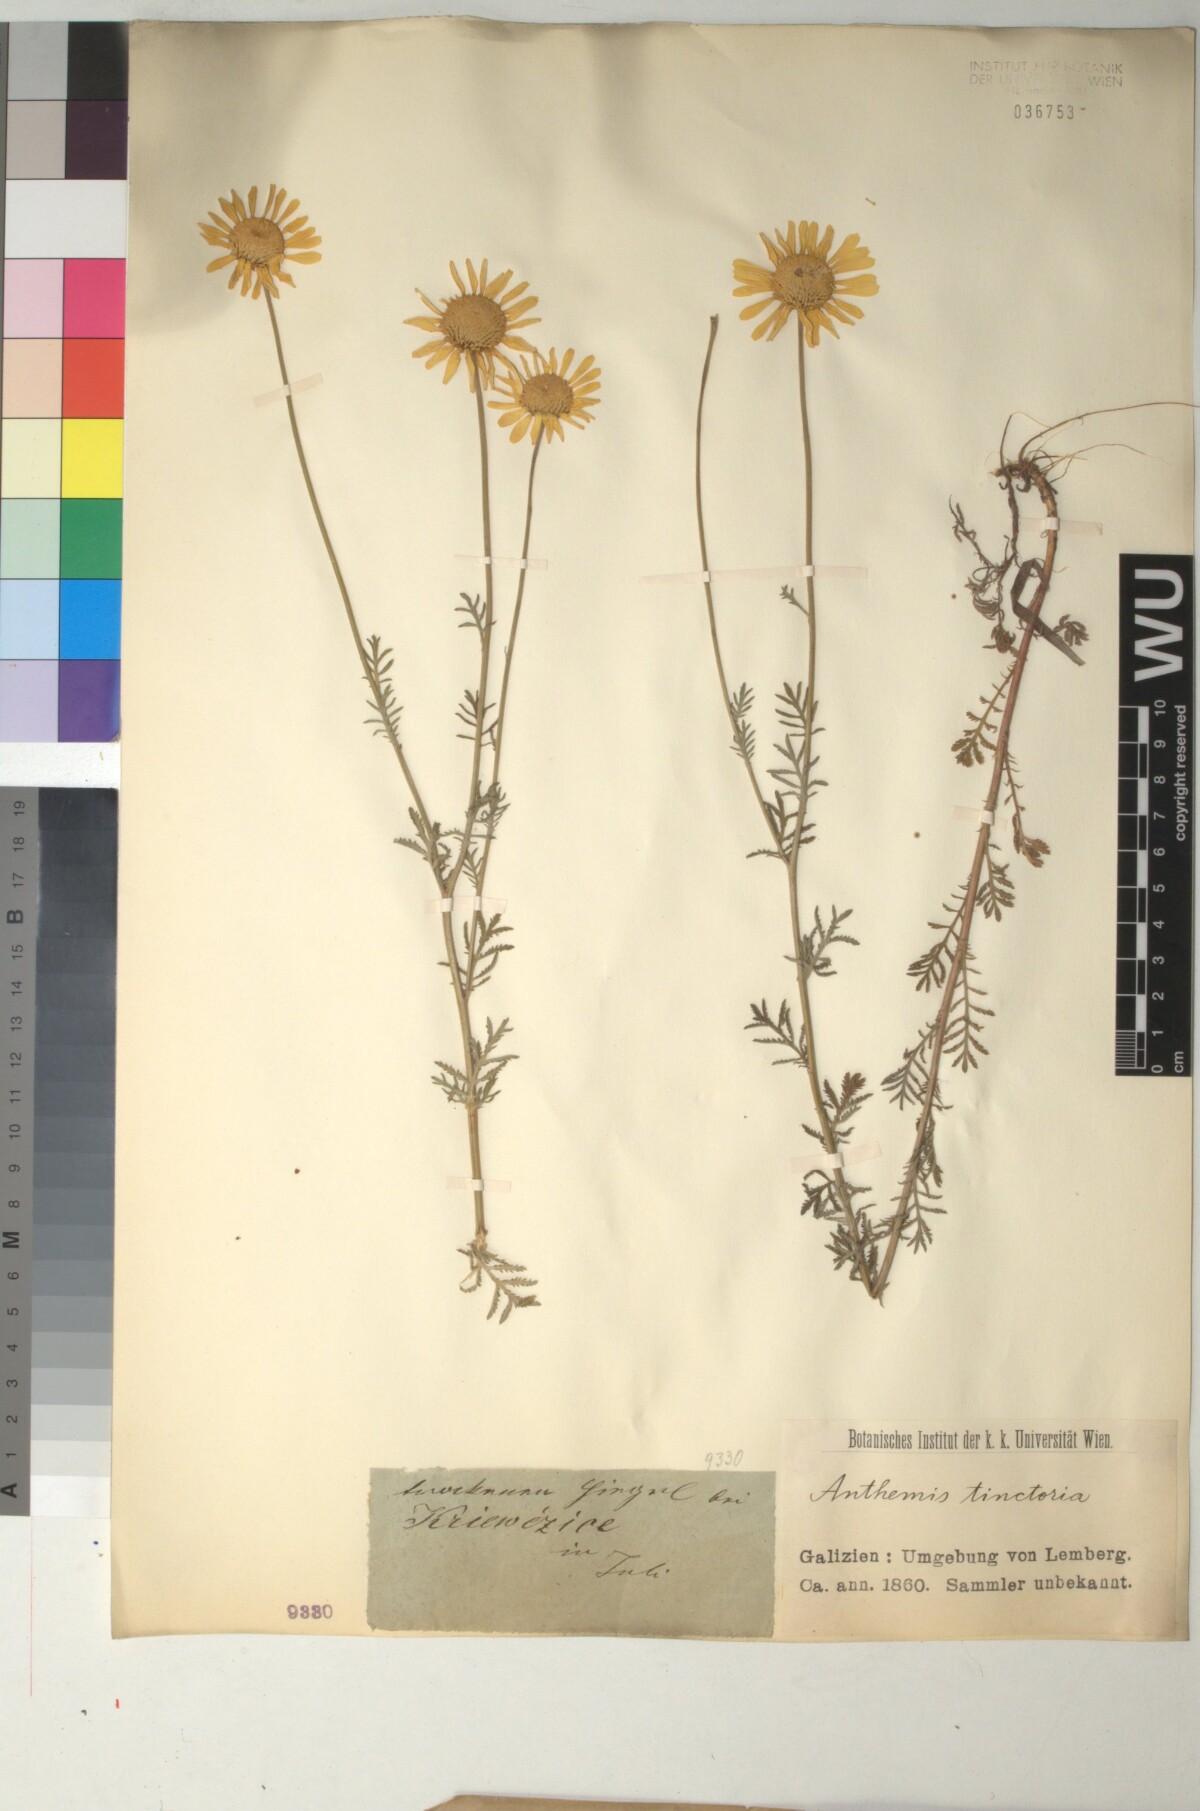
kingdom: Plantae
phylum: Tracheophyta
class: Magnoliopsida
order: Asterales
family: Asteraceae
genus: Cota
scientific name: Cota tinctoria
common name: Golden chamomile
